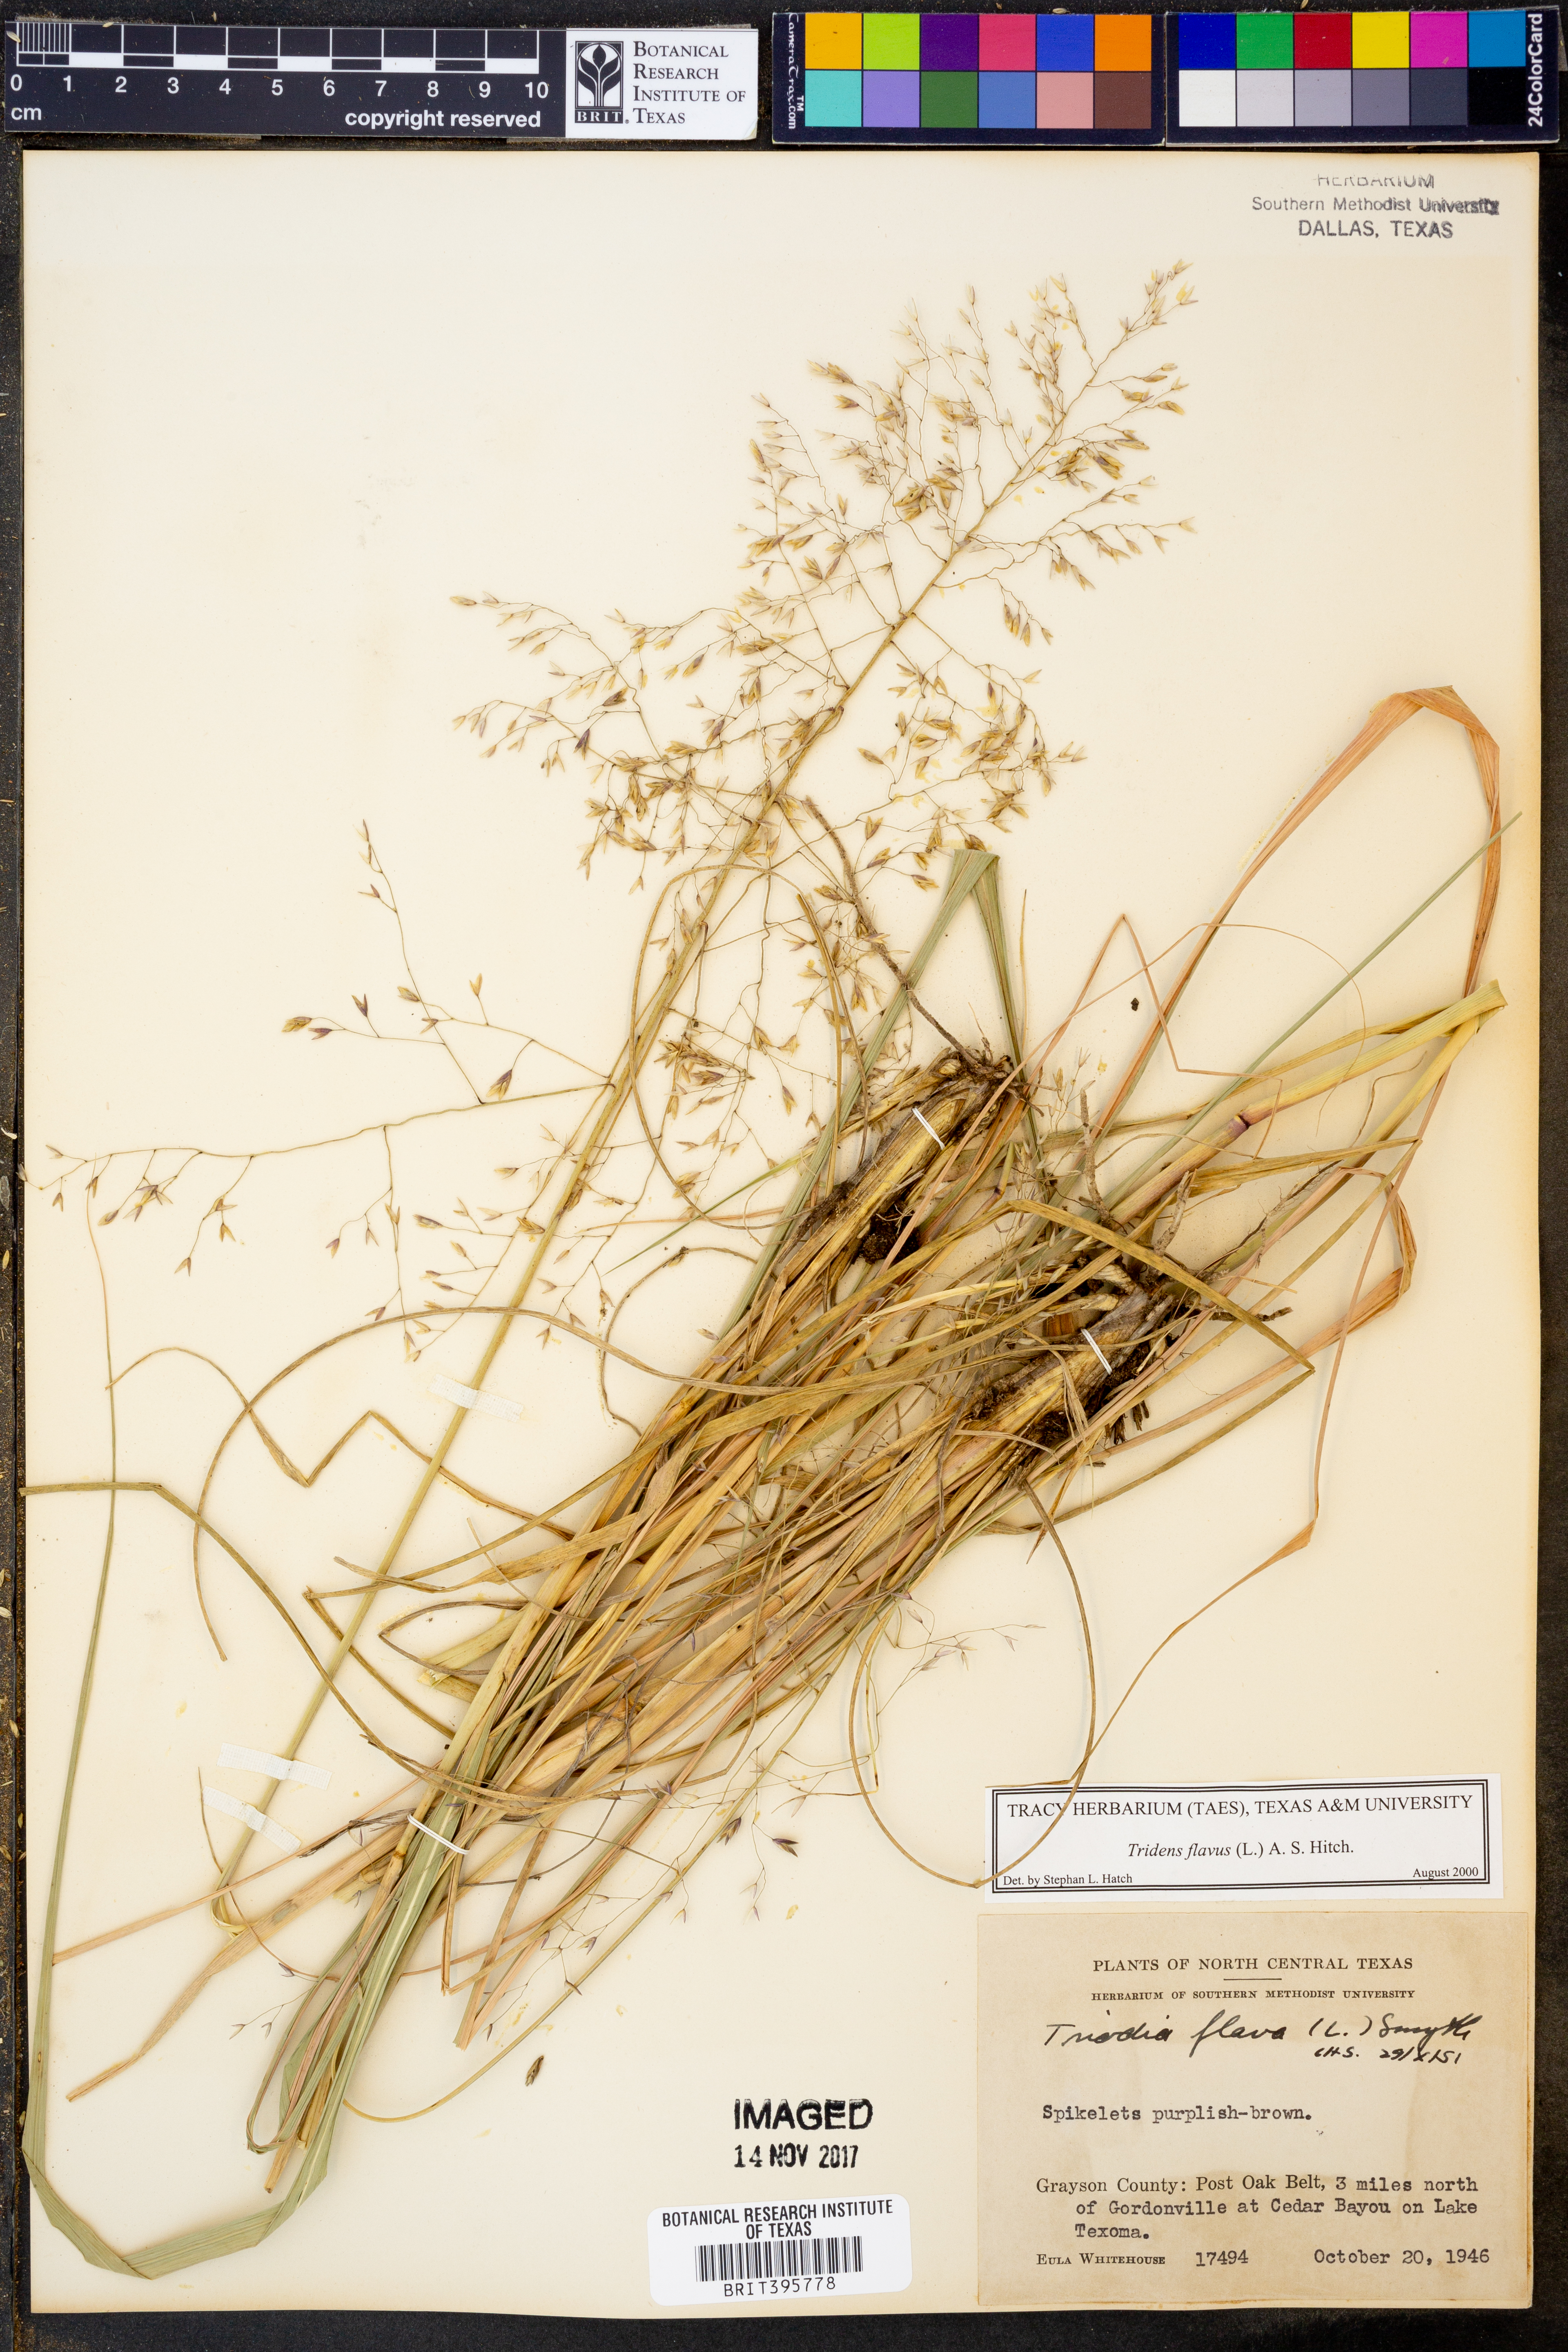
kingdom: Plantae
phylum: Tracheophyta
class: Liliopsida
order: Poales
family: Poaceae
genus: Tridens
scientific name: Tridens flavus
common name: Purpletop
